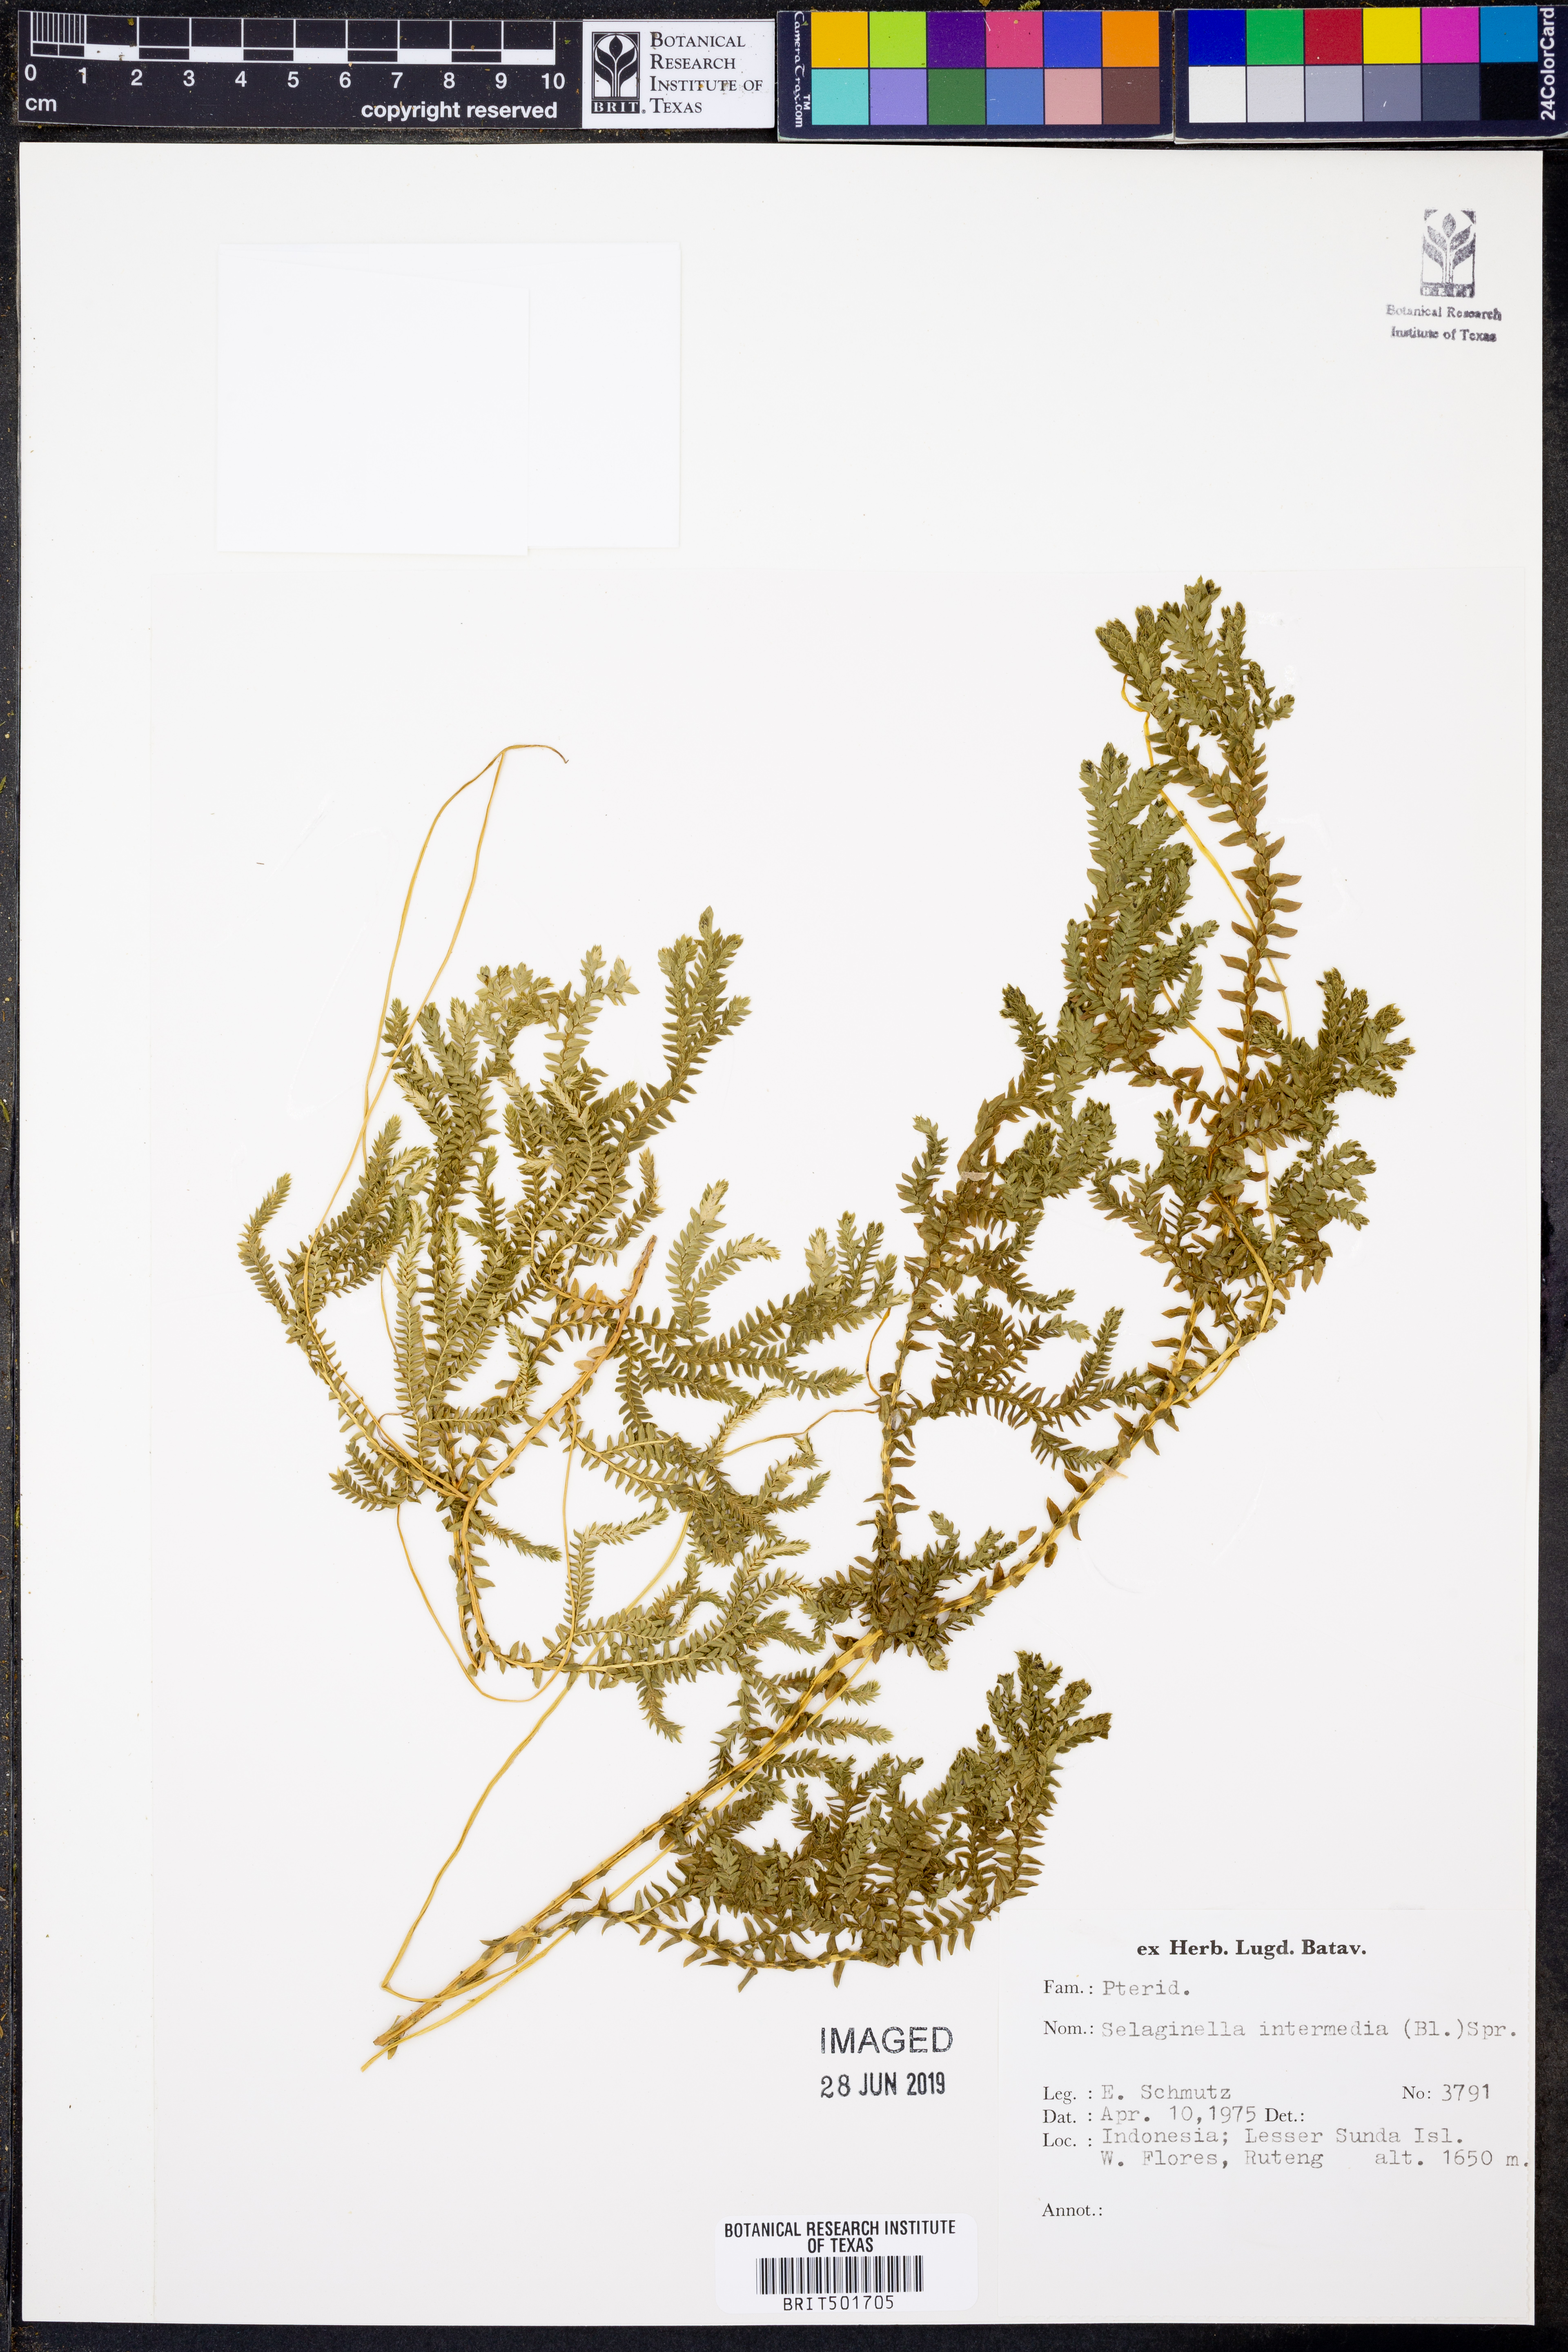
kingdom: Plantae
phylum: Tracheophyta
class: Lycopodiopsida
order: Selaginellales
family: Selaginellaceae
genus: Selaginella
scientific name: Selaginella intermedia
